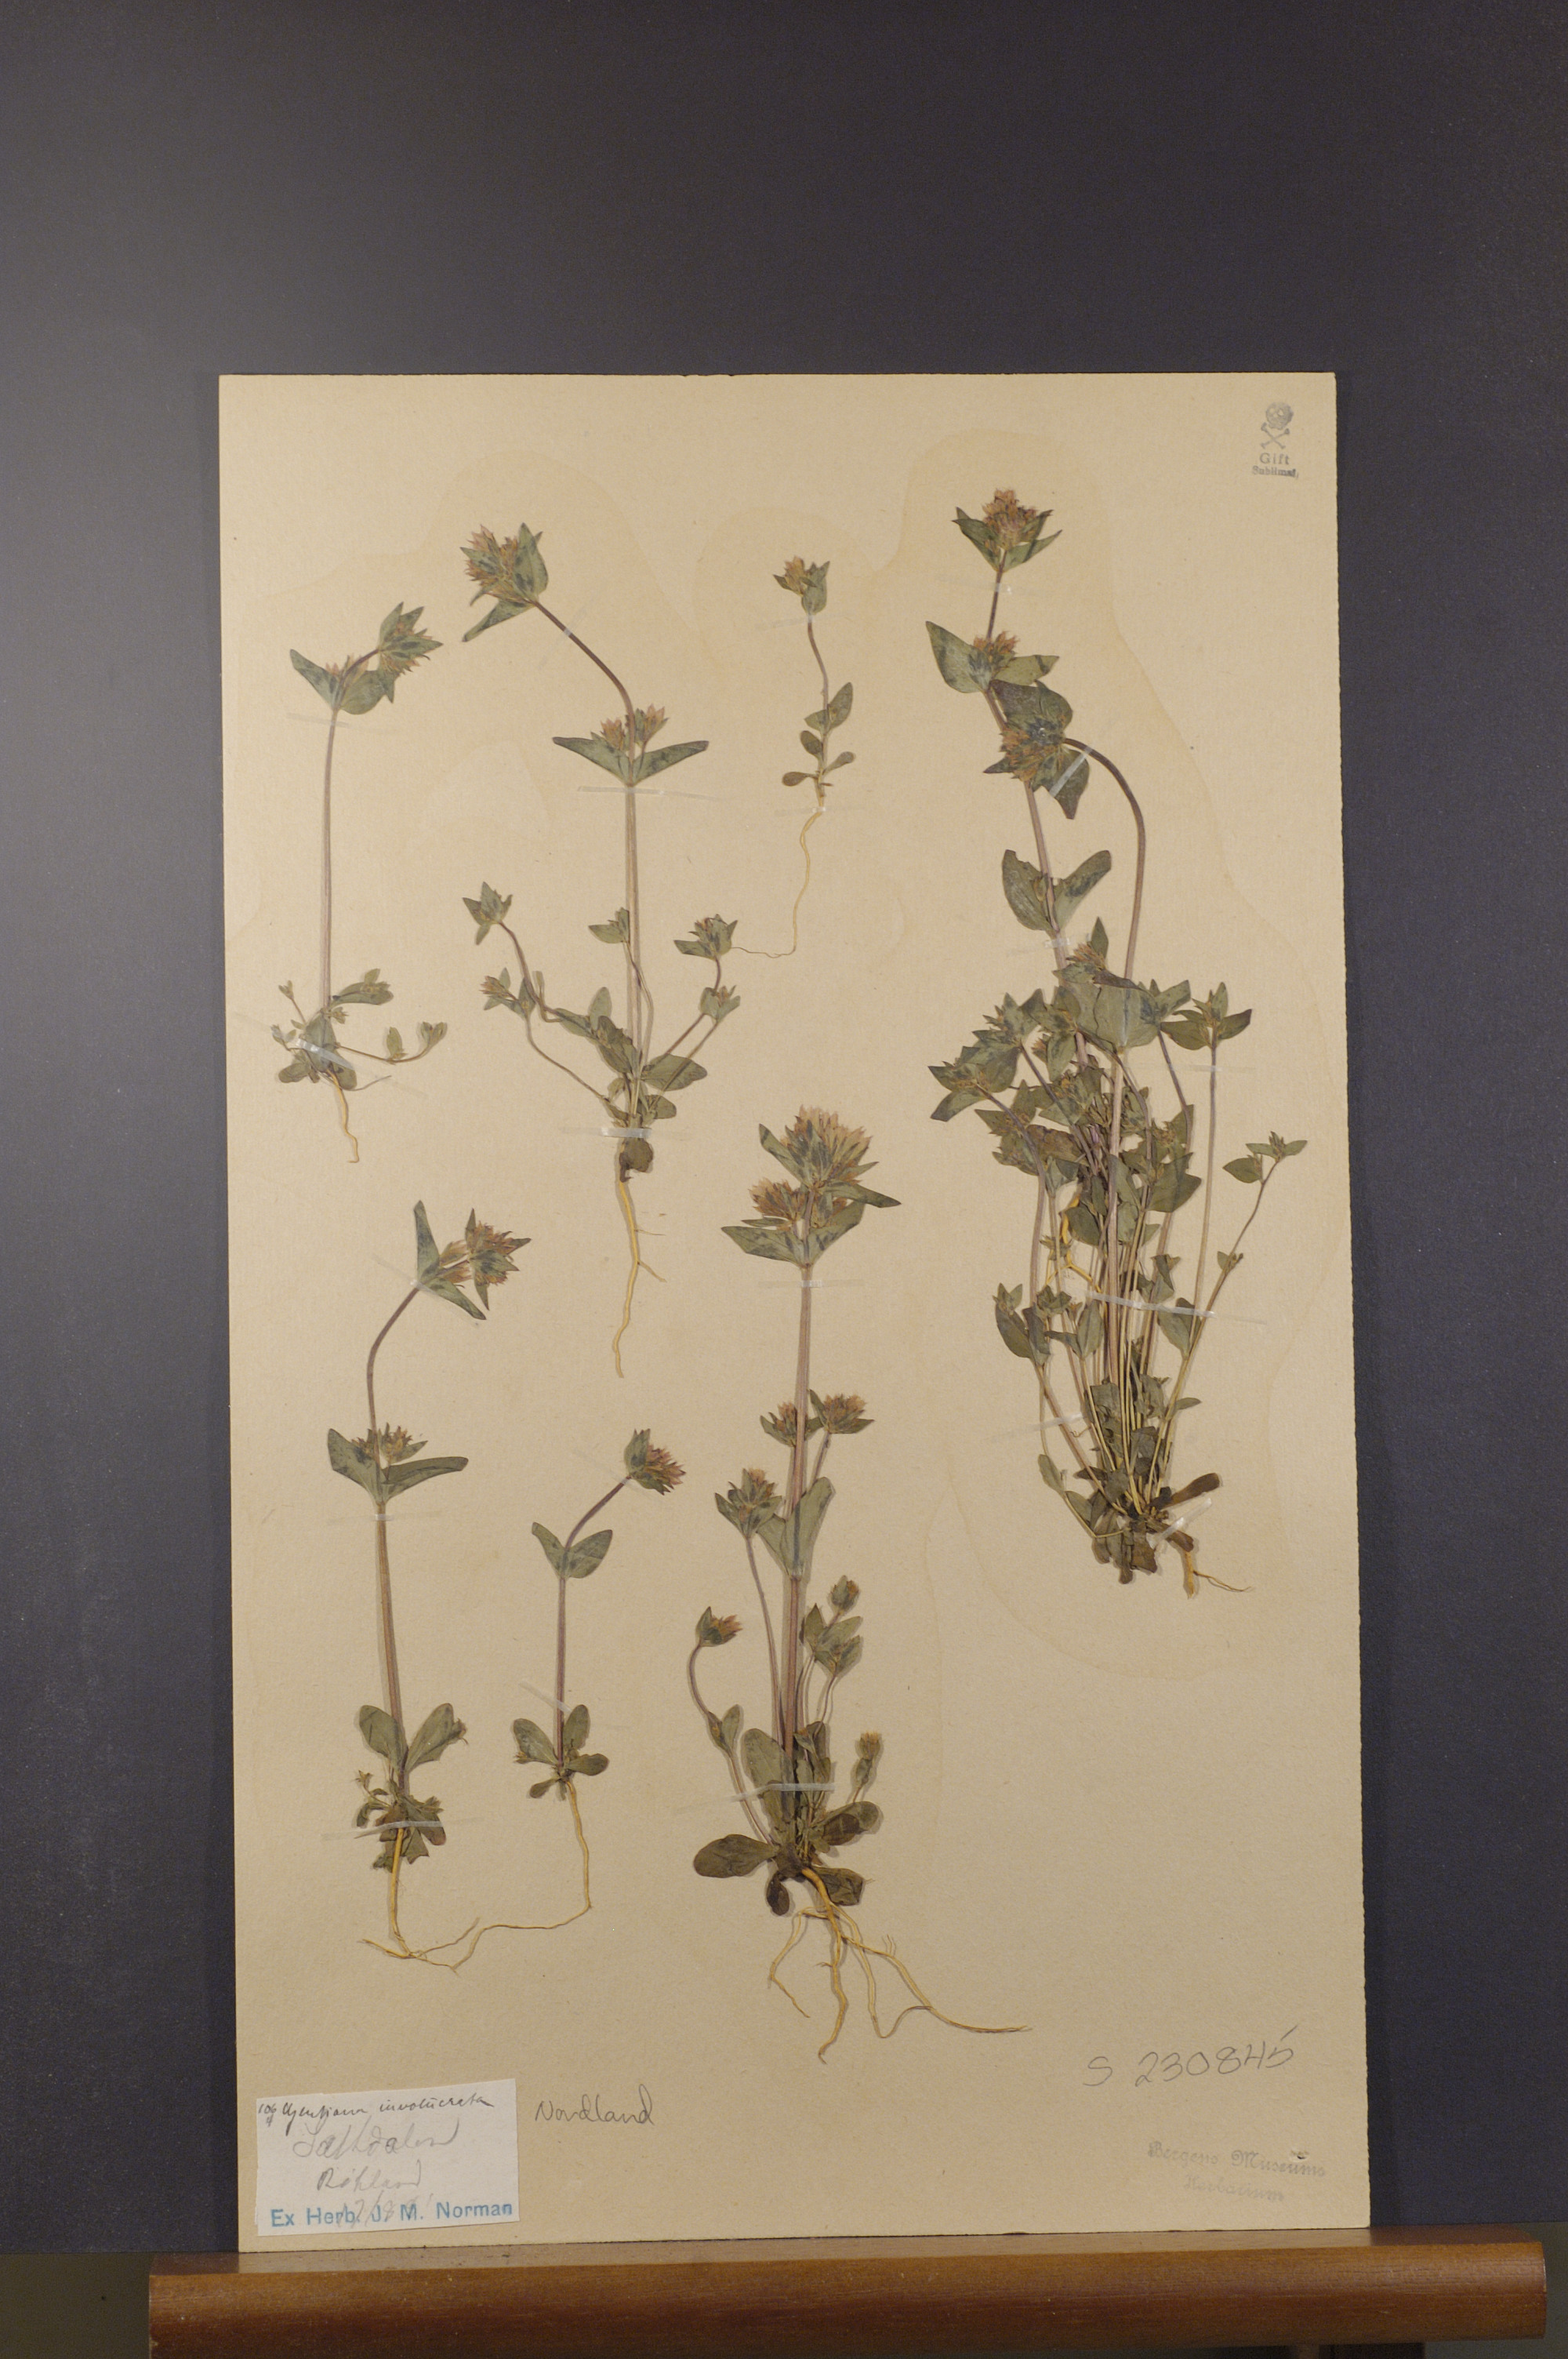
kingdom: Plantae
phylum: Tracheophyta
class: Magnoliopsida
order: Gentianales
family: Gentianaceae
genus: Gentianella
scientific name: Gentianella aurea
